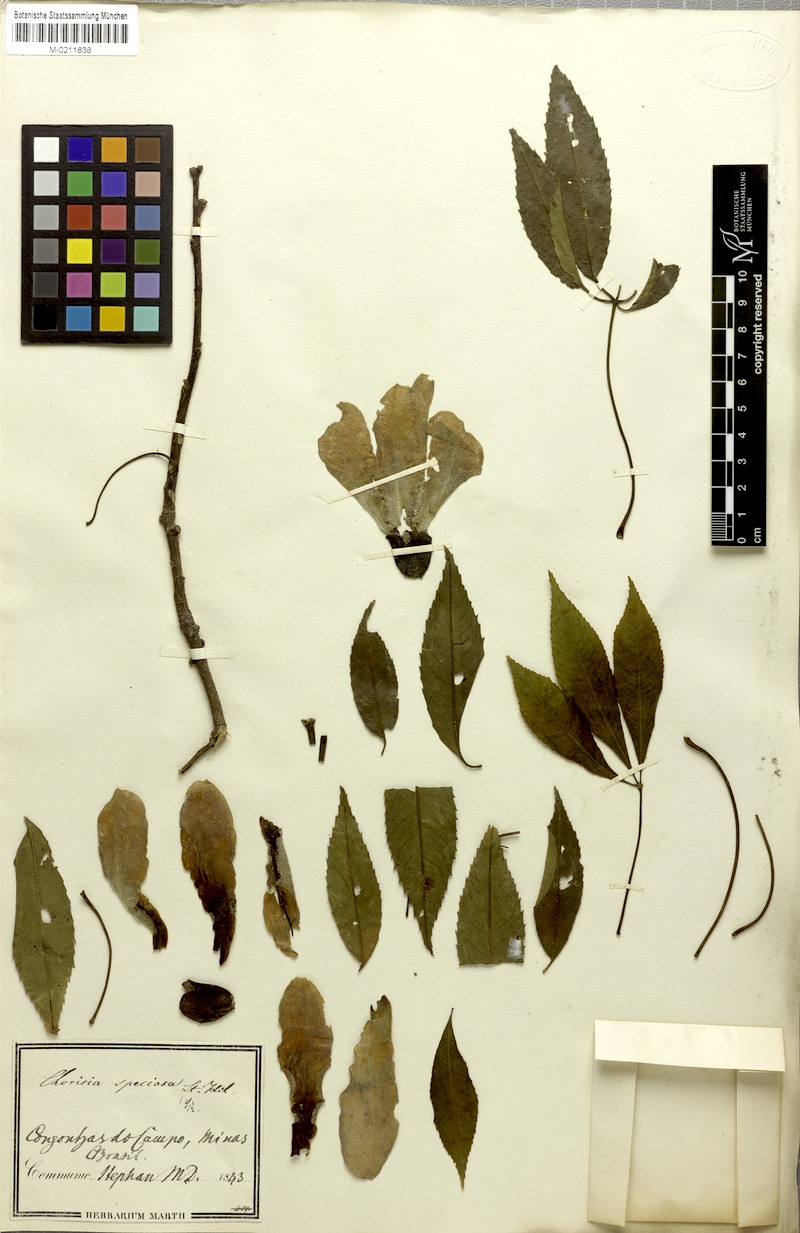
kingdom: Plantae
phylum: Tracheophyta
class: Magnoliopsida
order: Malvales
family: Malvaceae
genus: Ceiba
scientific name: Ceiba speciosa
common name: Silk-floss tree
